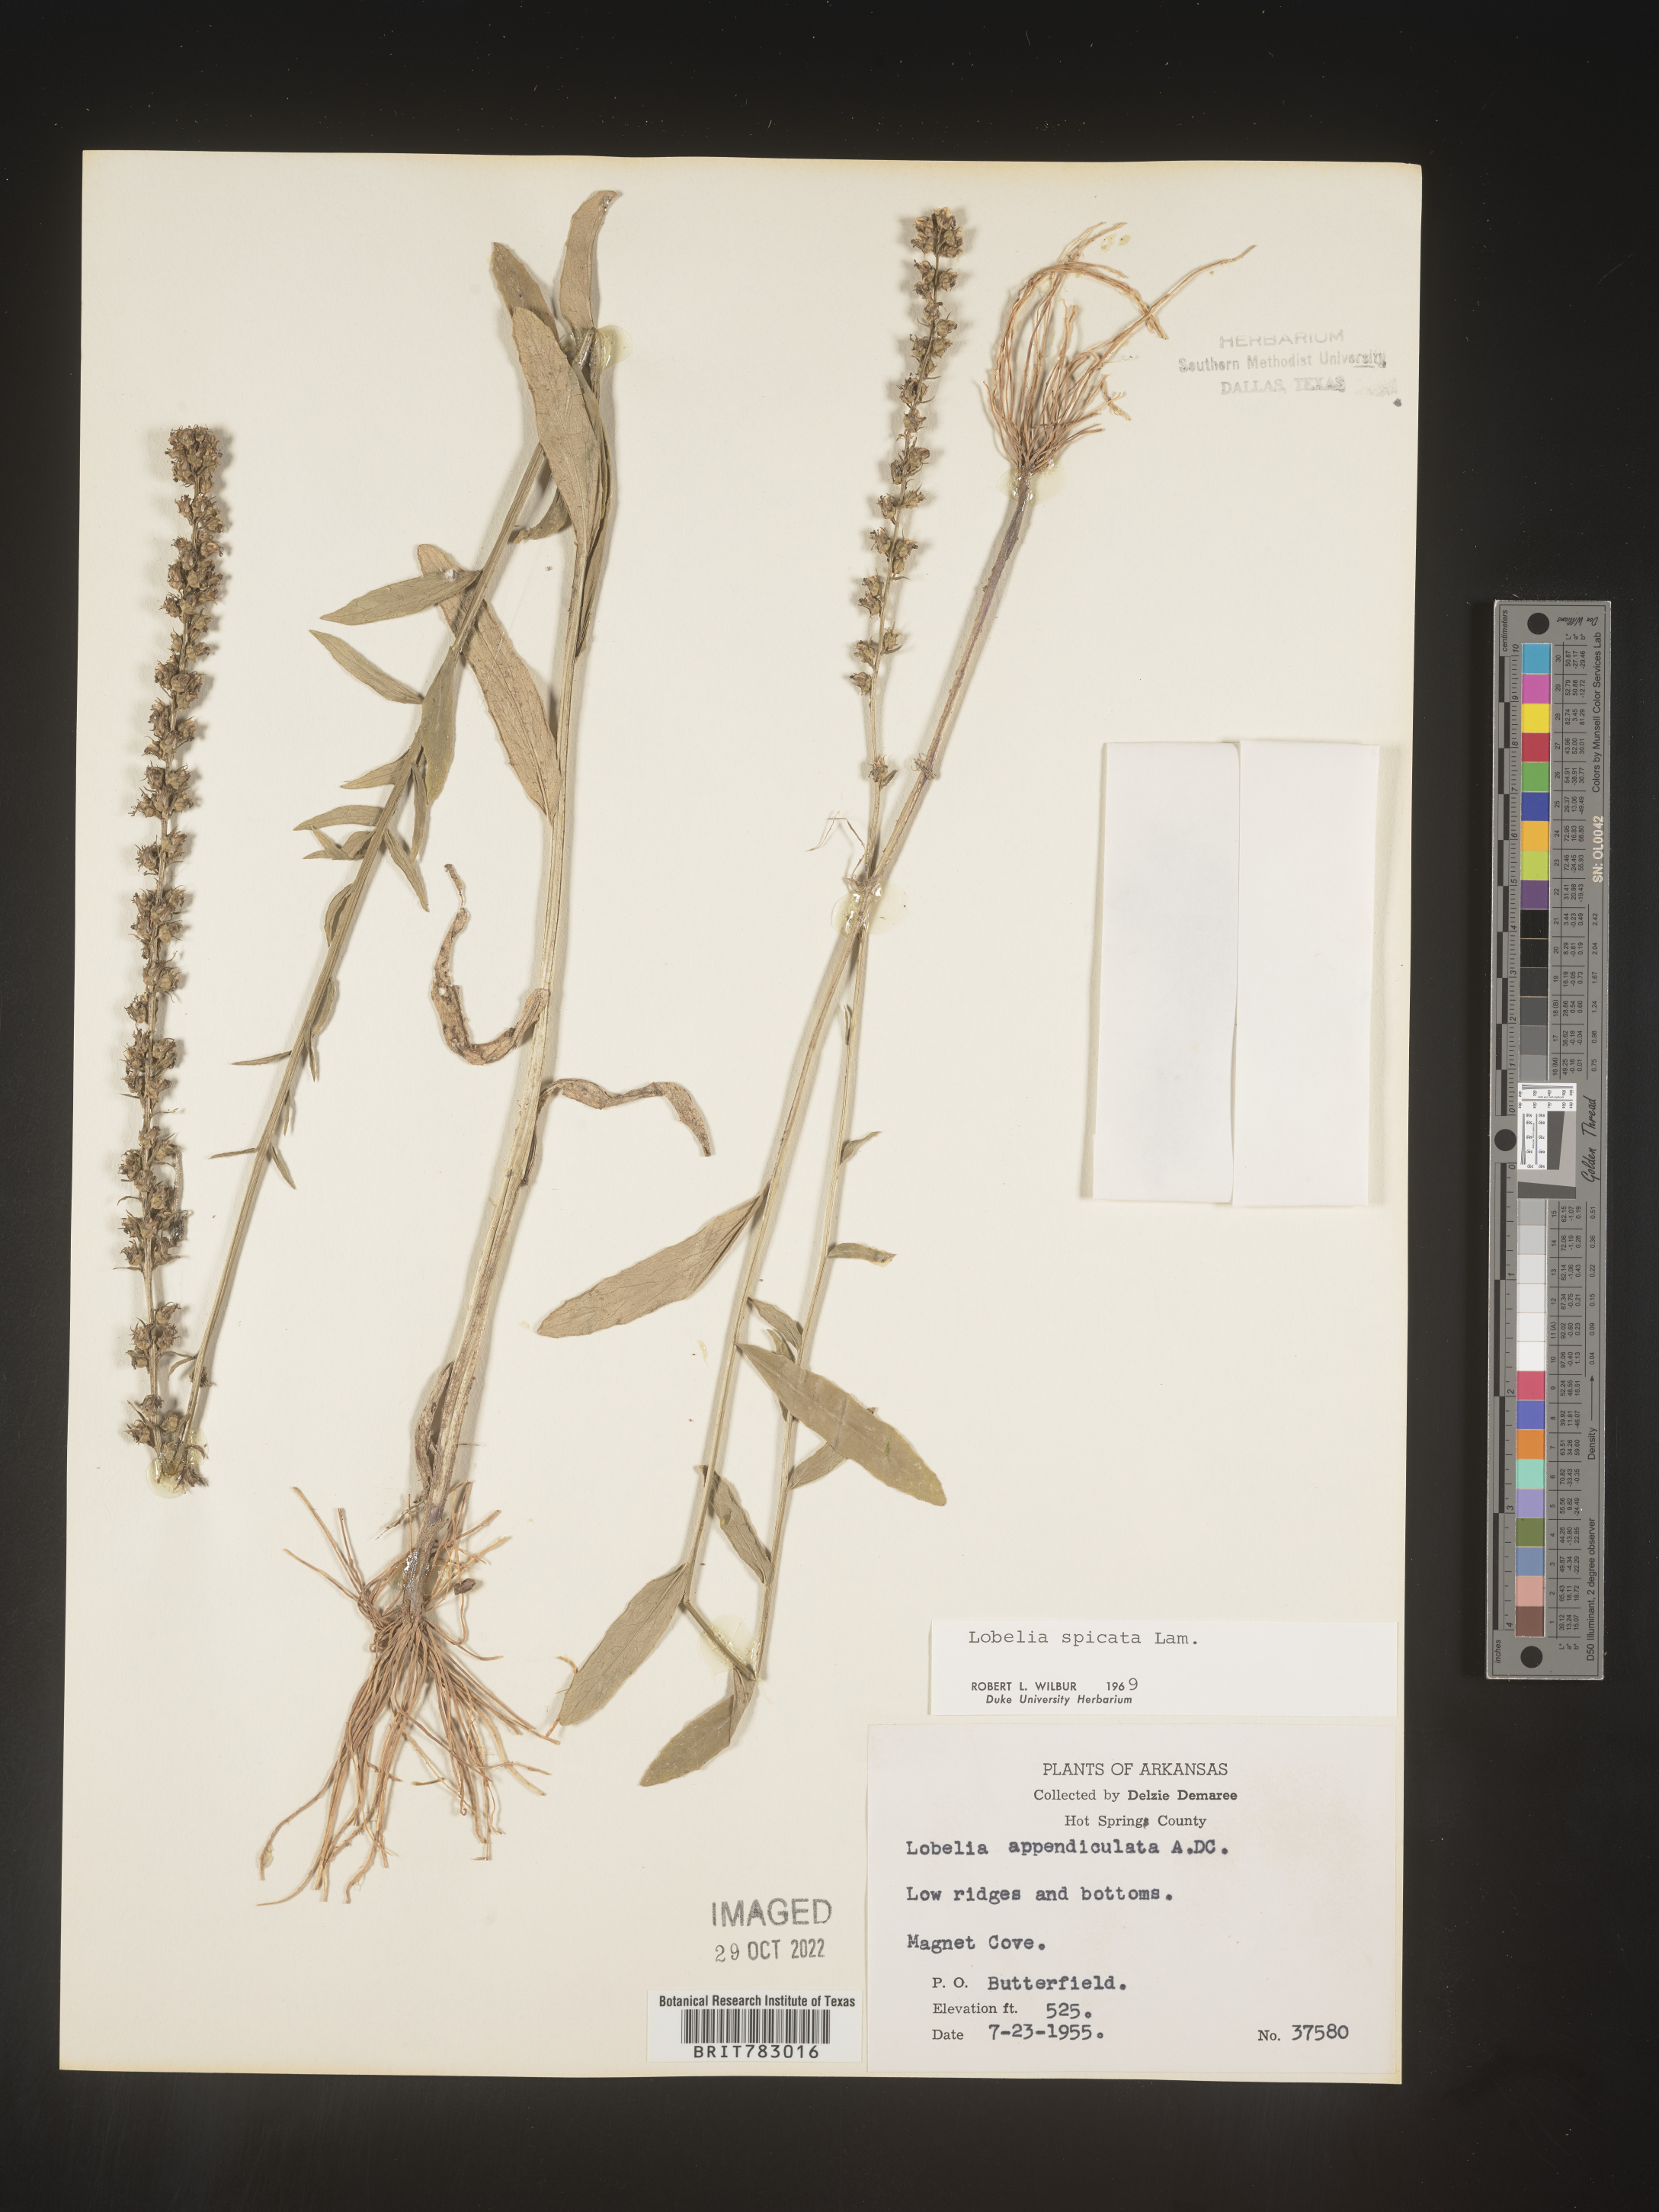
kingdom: Plantae
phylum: Tracheophyta
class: Magnoliopsida
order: Asterales
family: Campanulaceae
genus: Lobelia
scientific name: Lobelia spicata
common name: Pale-spike lobelia
